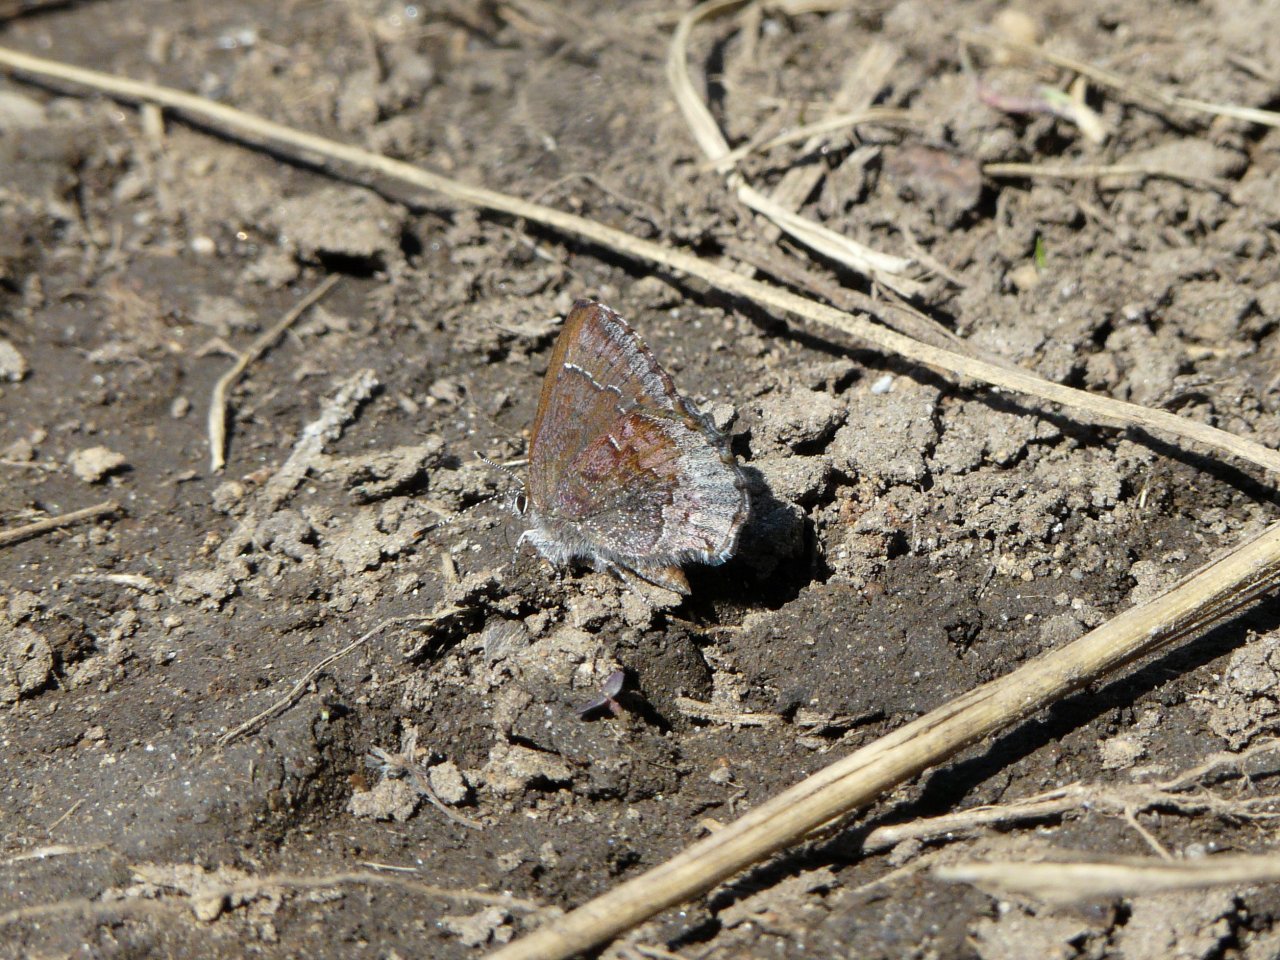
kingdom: Animalia
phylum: Arthropoda
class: Insecta
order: Lepidoptera
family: Lycaenidae
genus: Callophrys
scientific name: Callophrys polios
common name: Hoary Elfin
